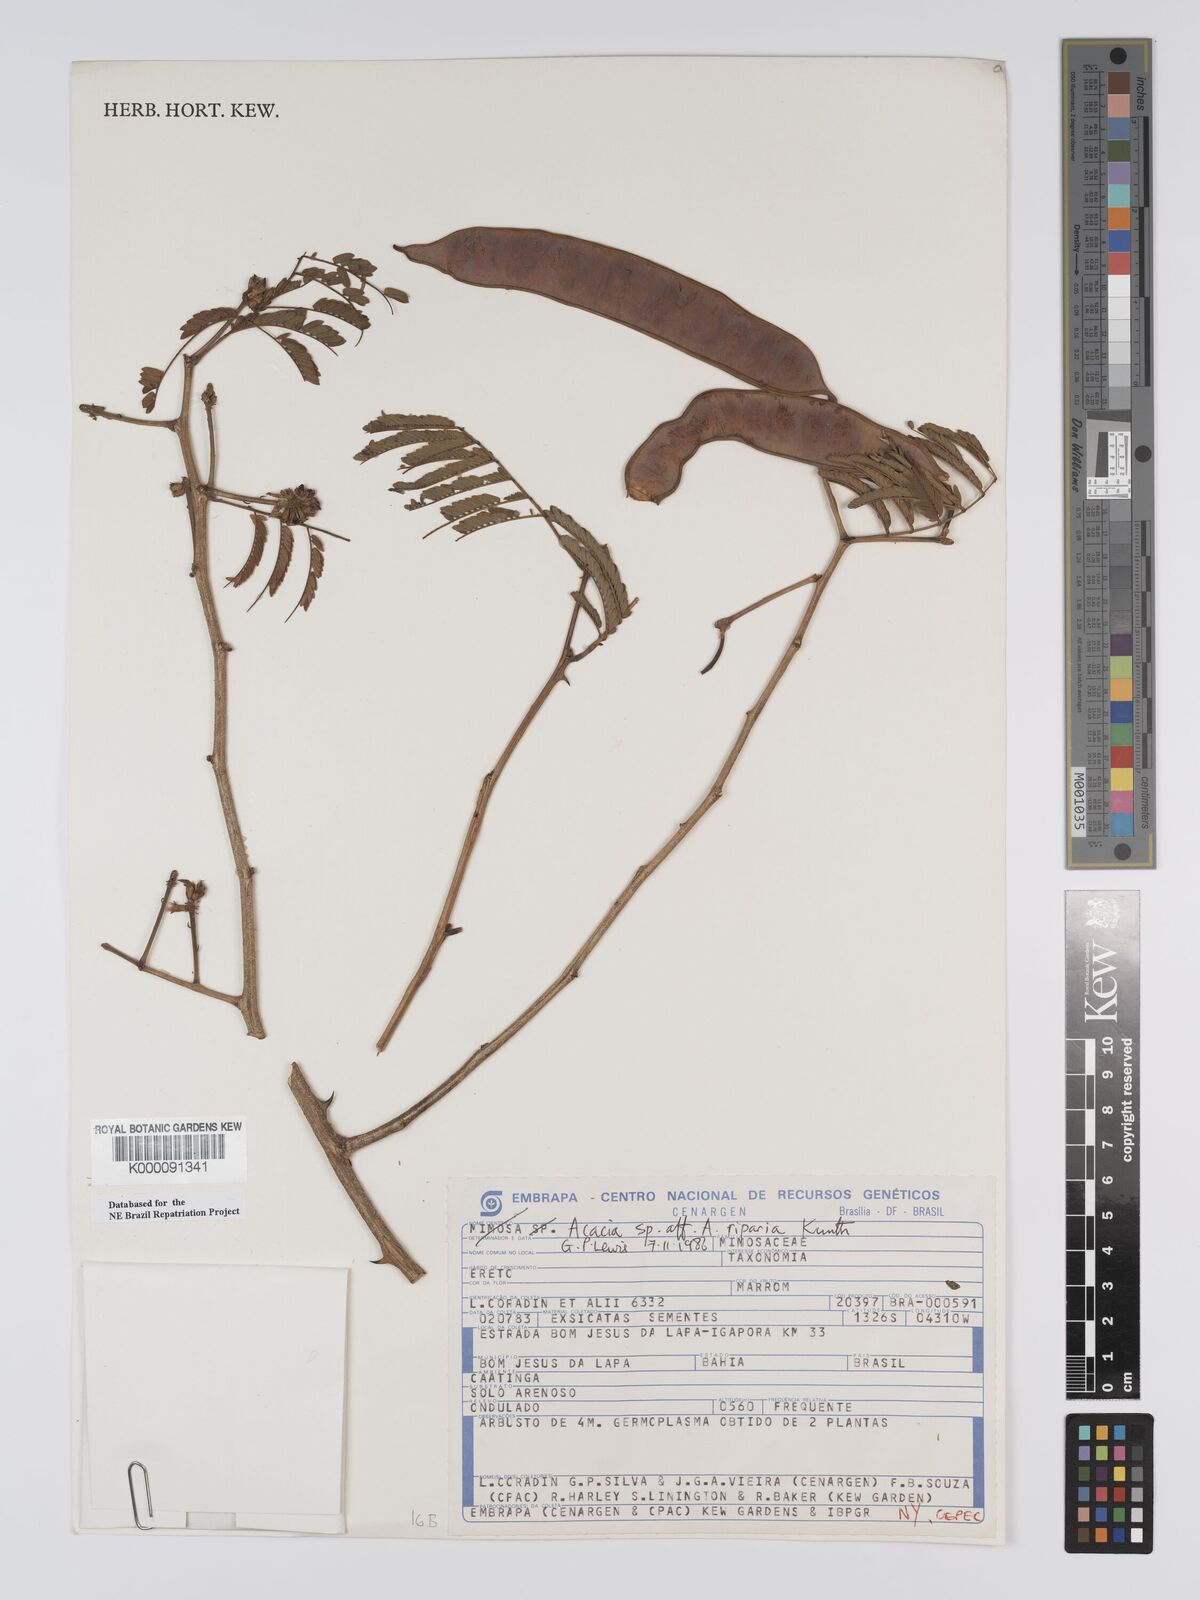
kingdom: Plantae
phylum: Tracheophyta
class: Magnoliopsida
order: Fabales
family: Fabaceae
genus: Senegalia
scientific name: Senegalia riparia
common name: Catch-and-keep
